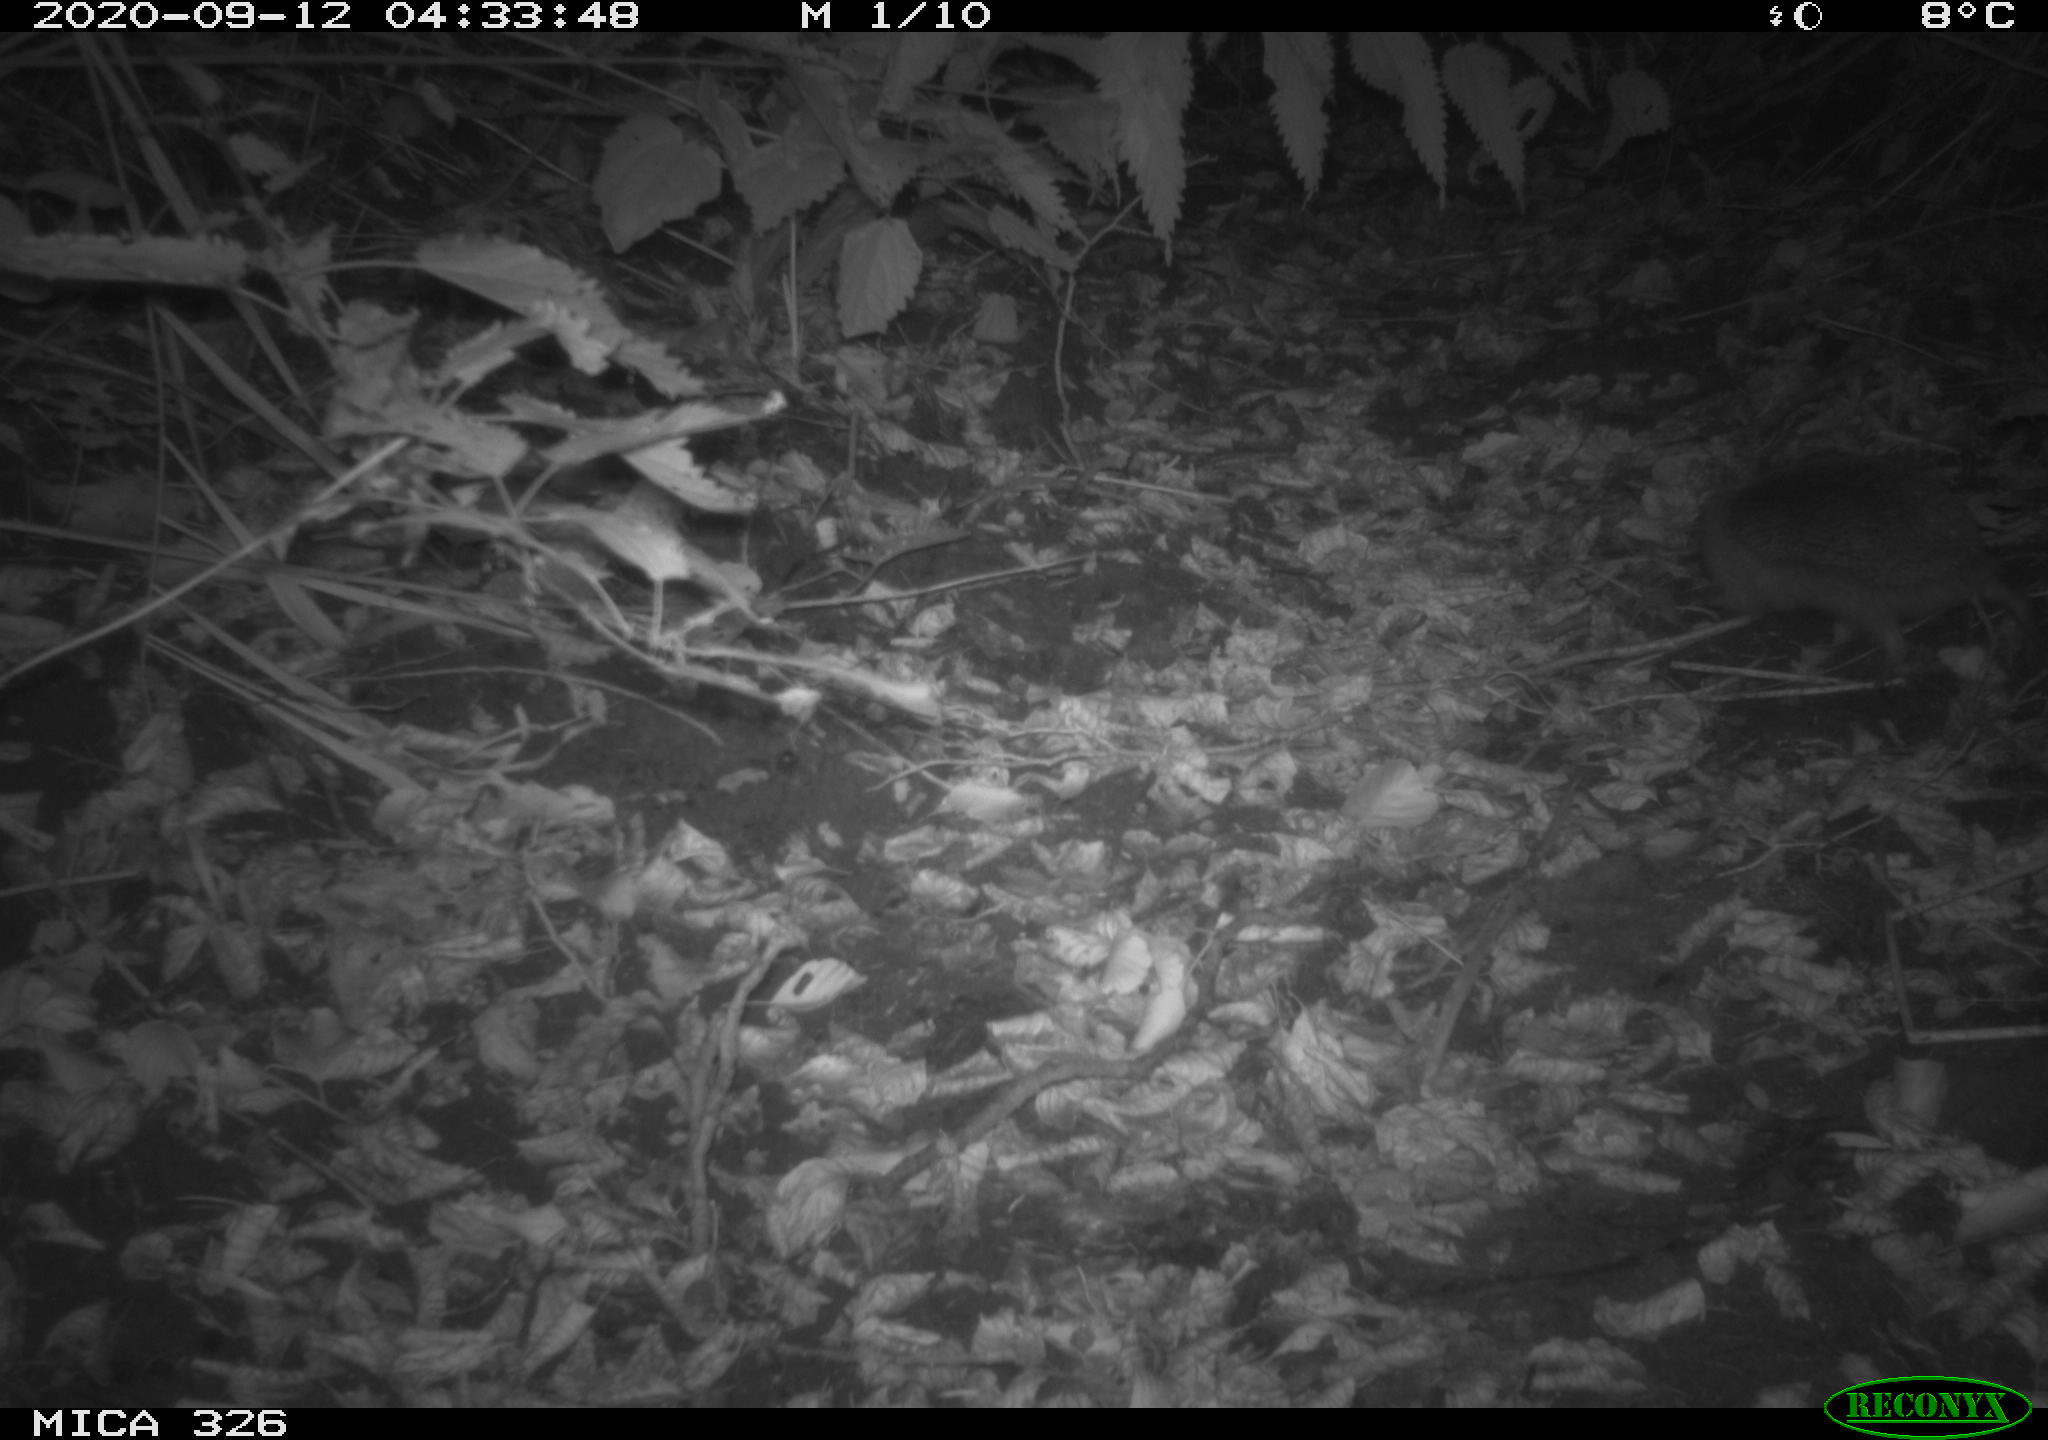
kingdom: Animalia
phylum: Chordata
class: Mammalia
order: Erinaceomorpha
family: Erinaceidae
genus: Erinaceus
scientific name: Erinaceus europaeus
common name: West european hedgehog
